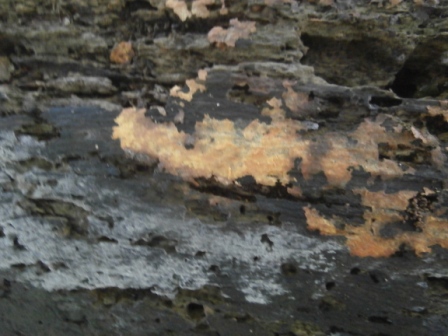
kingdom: Fungi
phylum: Basidiomycota
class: Agaricomycetes
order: Russulales
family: Peniophoraceae
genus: Peniophora
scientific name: Peniophora incarnata
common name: laksefarvet voksskind
